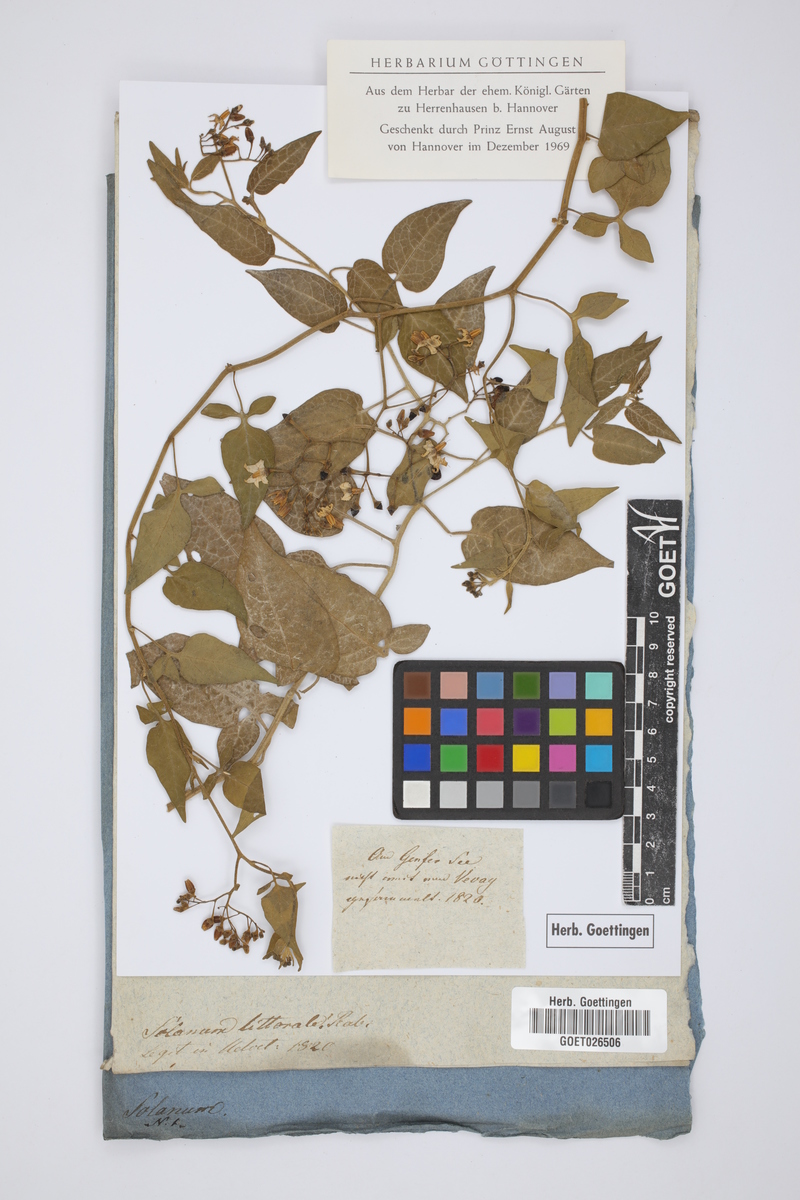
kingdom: Plantae
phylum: Tracheophyta
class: Magnoliopsida
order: Solanales
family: Solanaceae
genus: Solanum
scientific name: Solanum dulcamara
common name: Climbing nightshade
